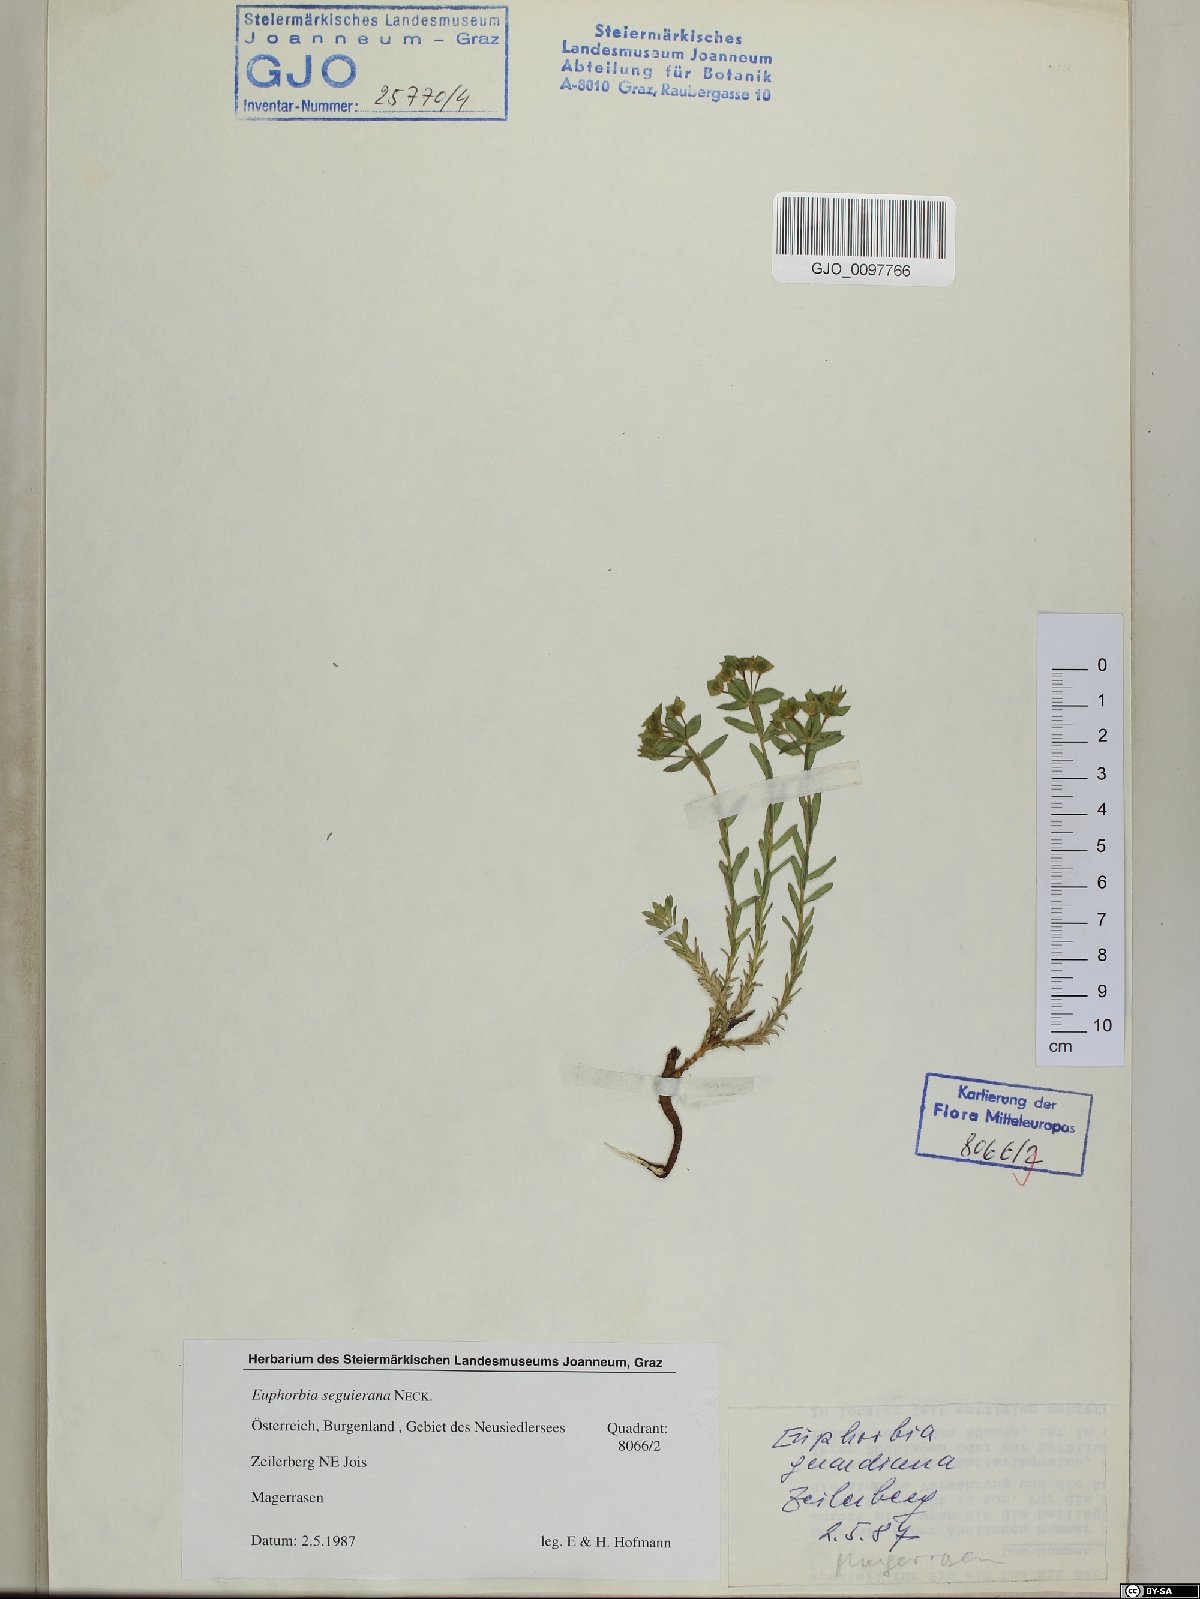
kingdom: Plantae
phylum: Tracheophyta
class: Magnoliopsida
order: Malpighiales
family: Euphorbiaceae
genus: Euphorbia
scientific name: Euphorbia seguieriana
